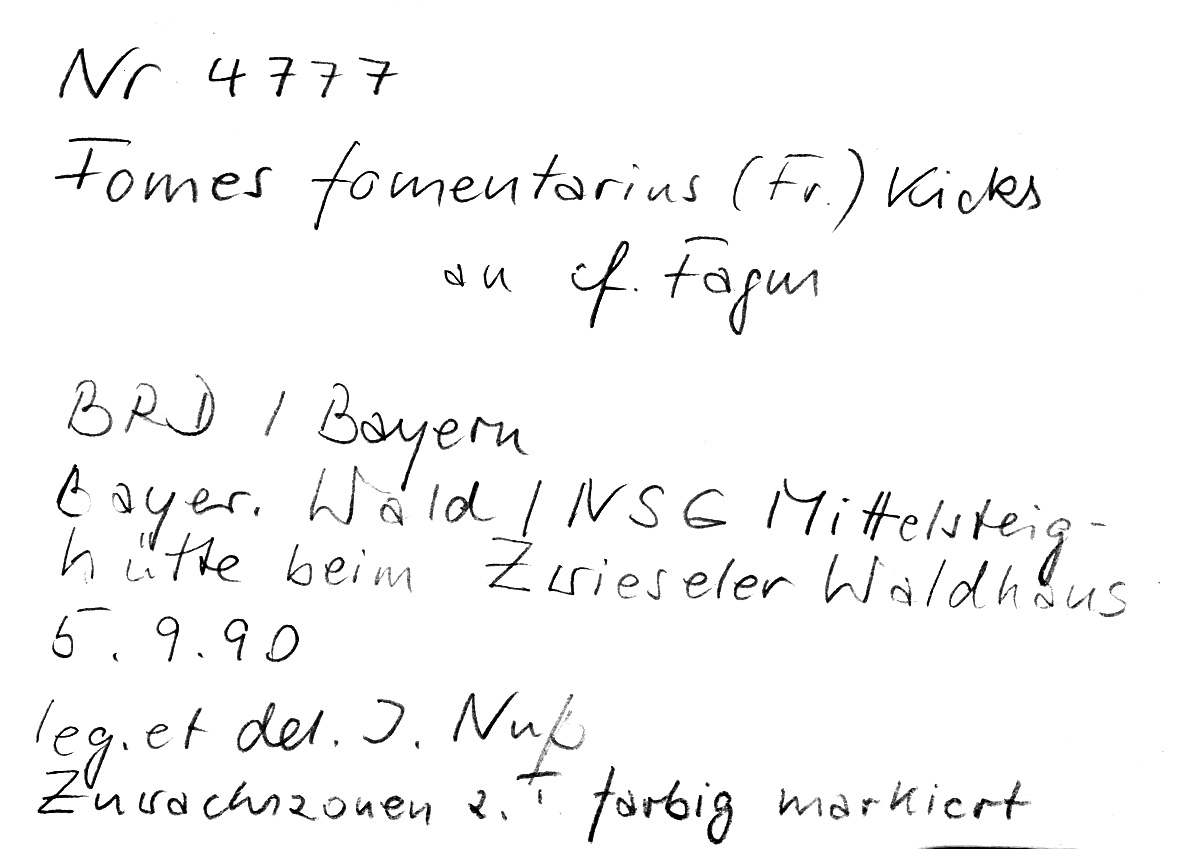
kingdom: Fungi
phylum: Basidiomycota
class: Agaricomycetes
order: Polyporales
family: Polyporaceae
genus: Fomes
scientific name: Fomes fomentarius
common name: Hoof fungus
